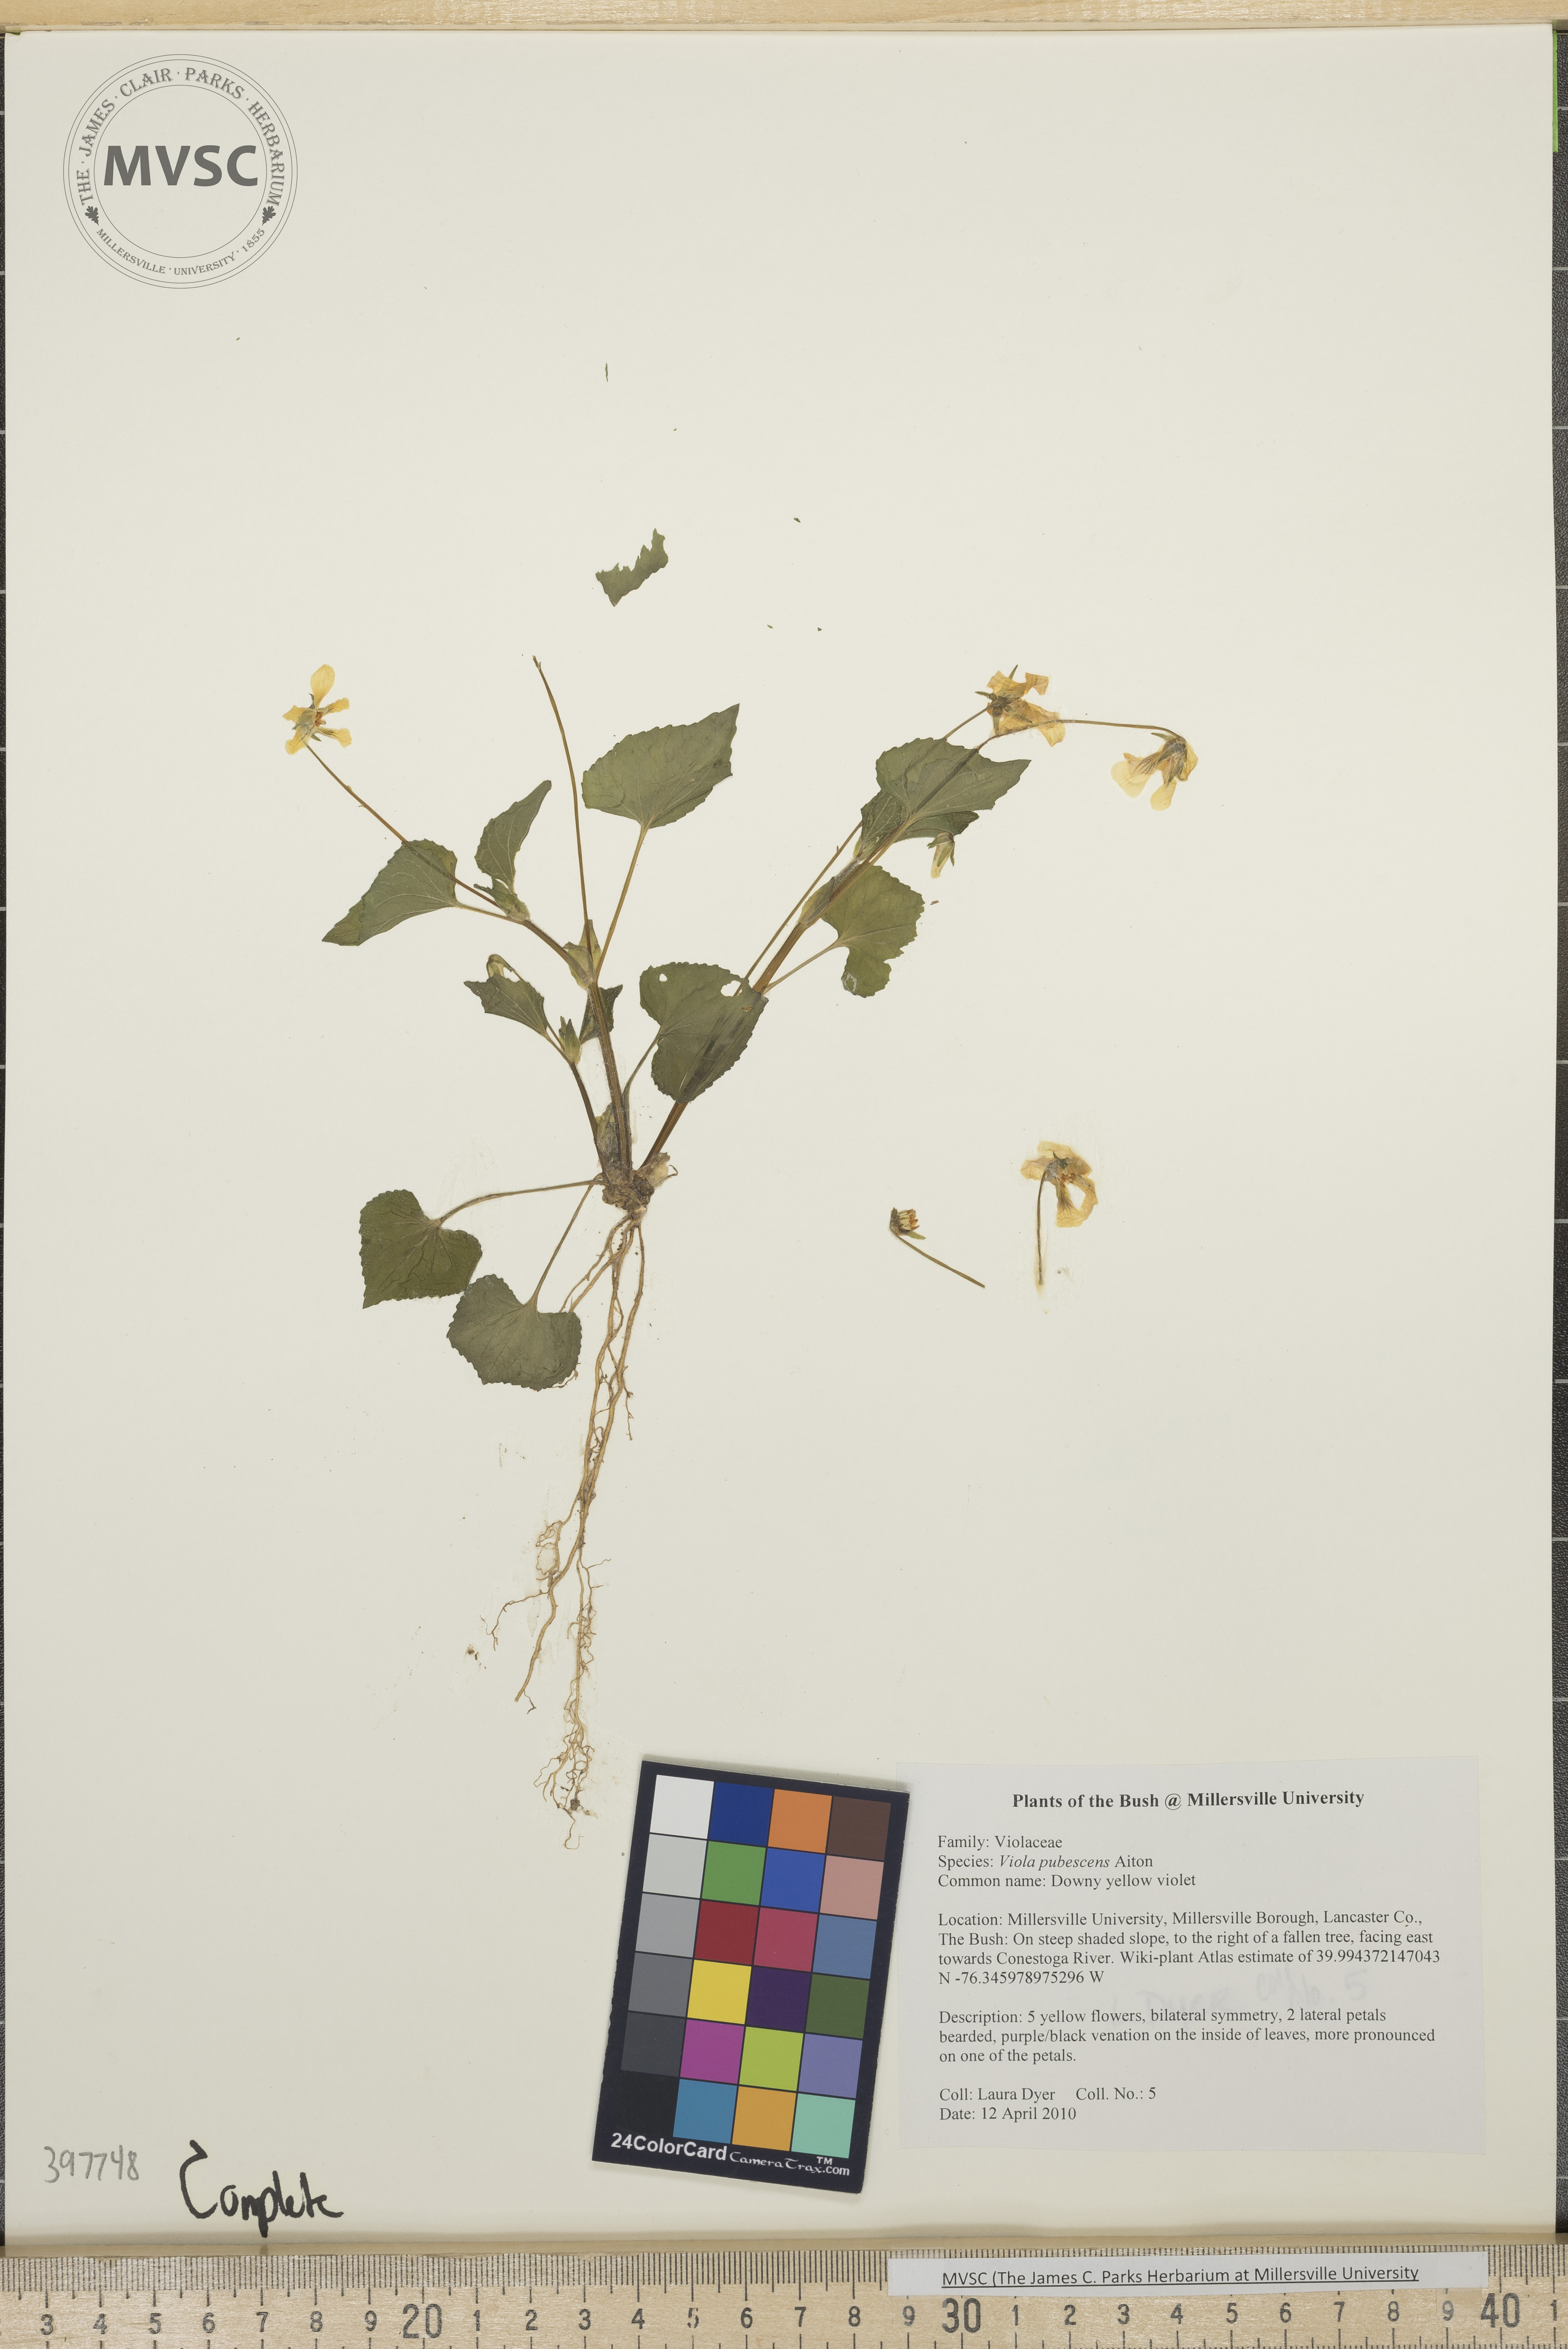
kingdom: Plantae
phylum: Tracheophyta
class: Magnoliopsida
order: Malpighiales
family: Violaceae
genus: Viola
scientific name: Viola pubescens
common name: downy yellow violet
